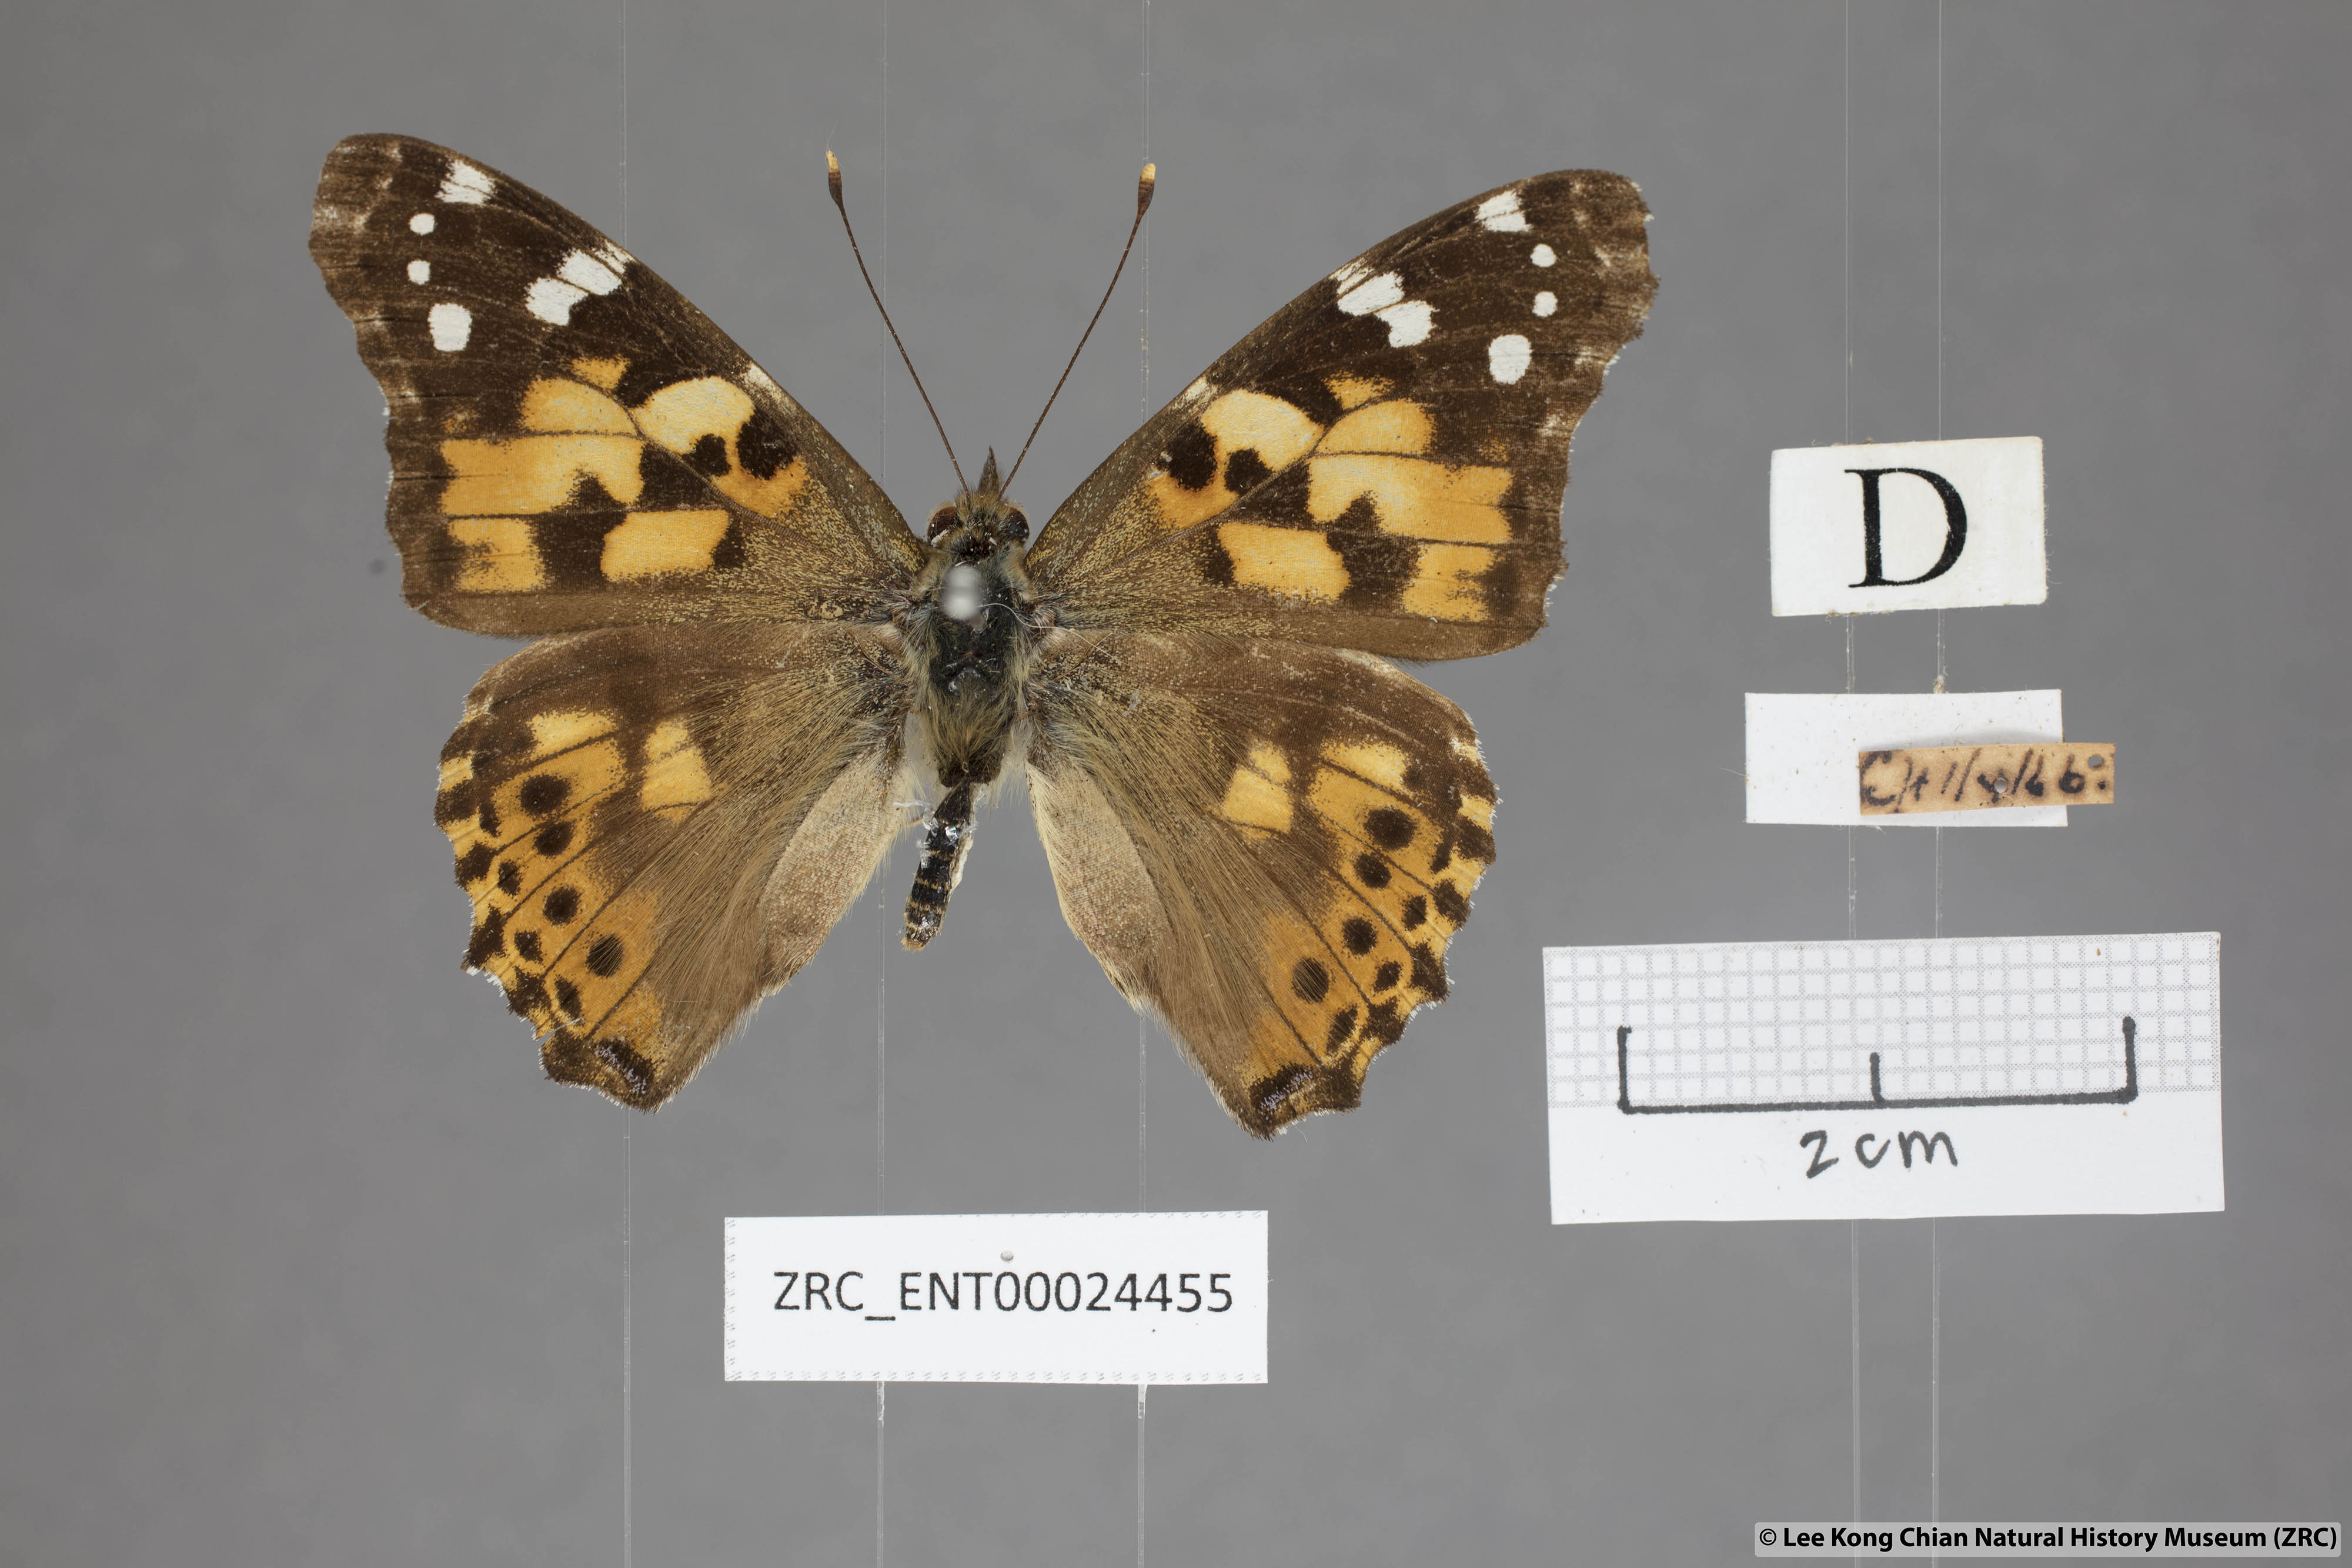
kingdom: Animalia
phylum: Arthropoda
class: Insecta
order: Lepidoptera
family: Nymphalidae
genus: Vanessa
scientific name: Vanessa cardui
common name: Painted lady
